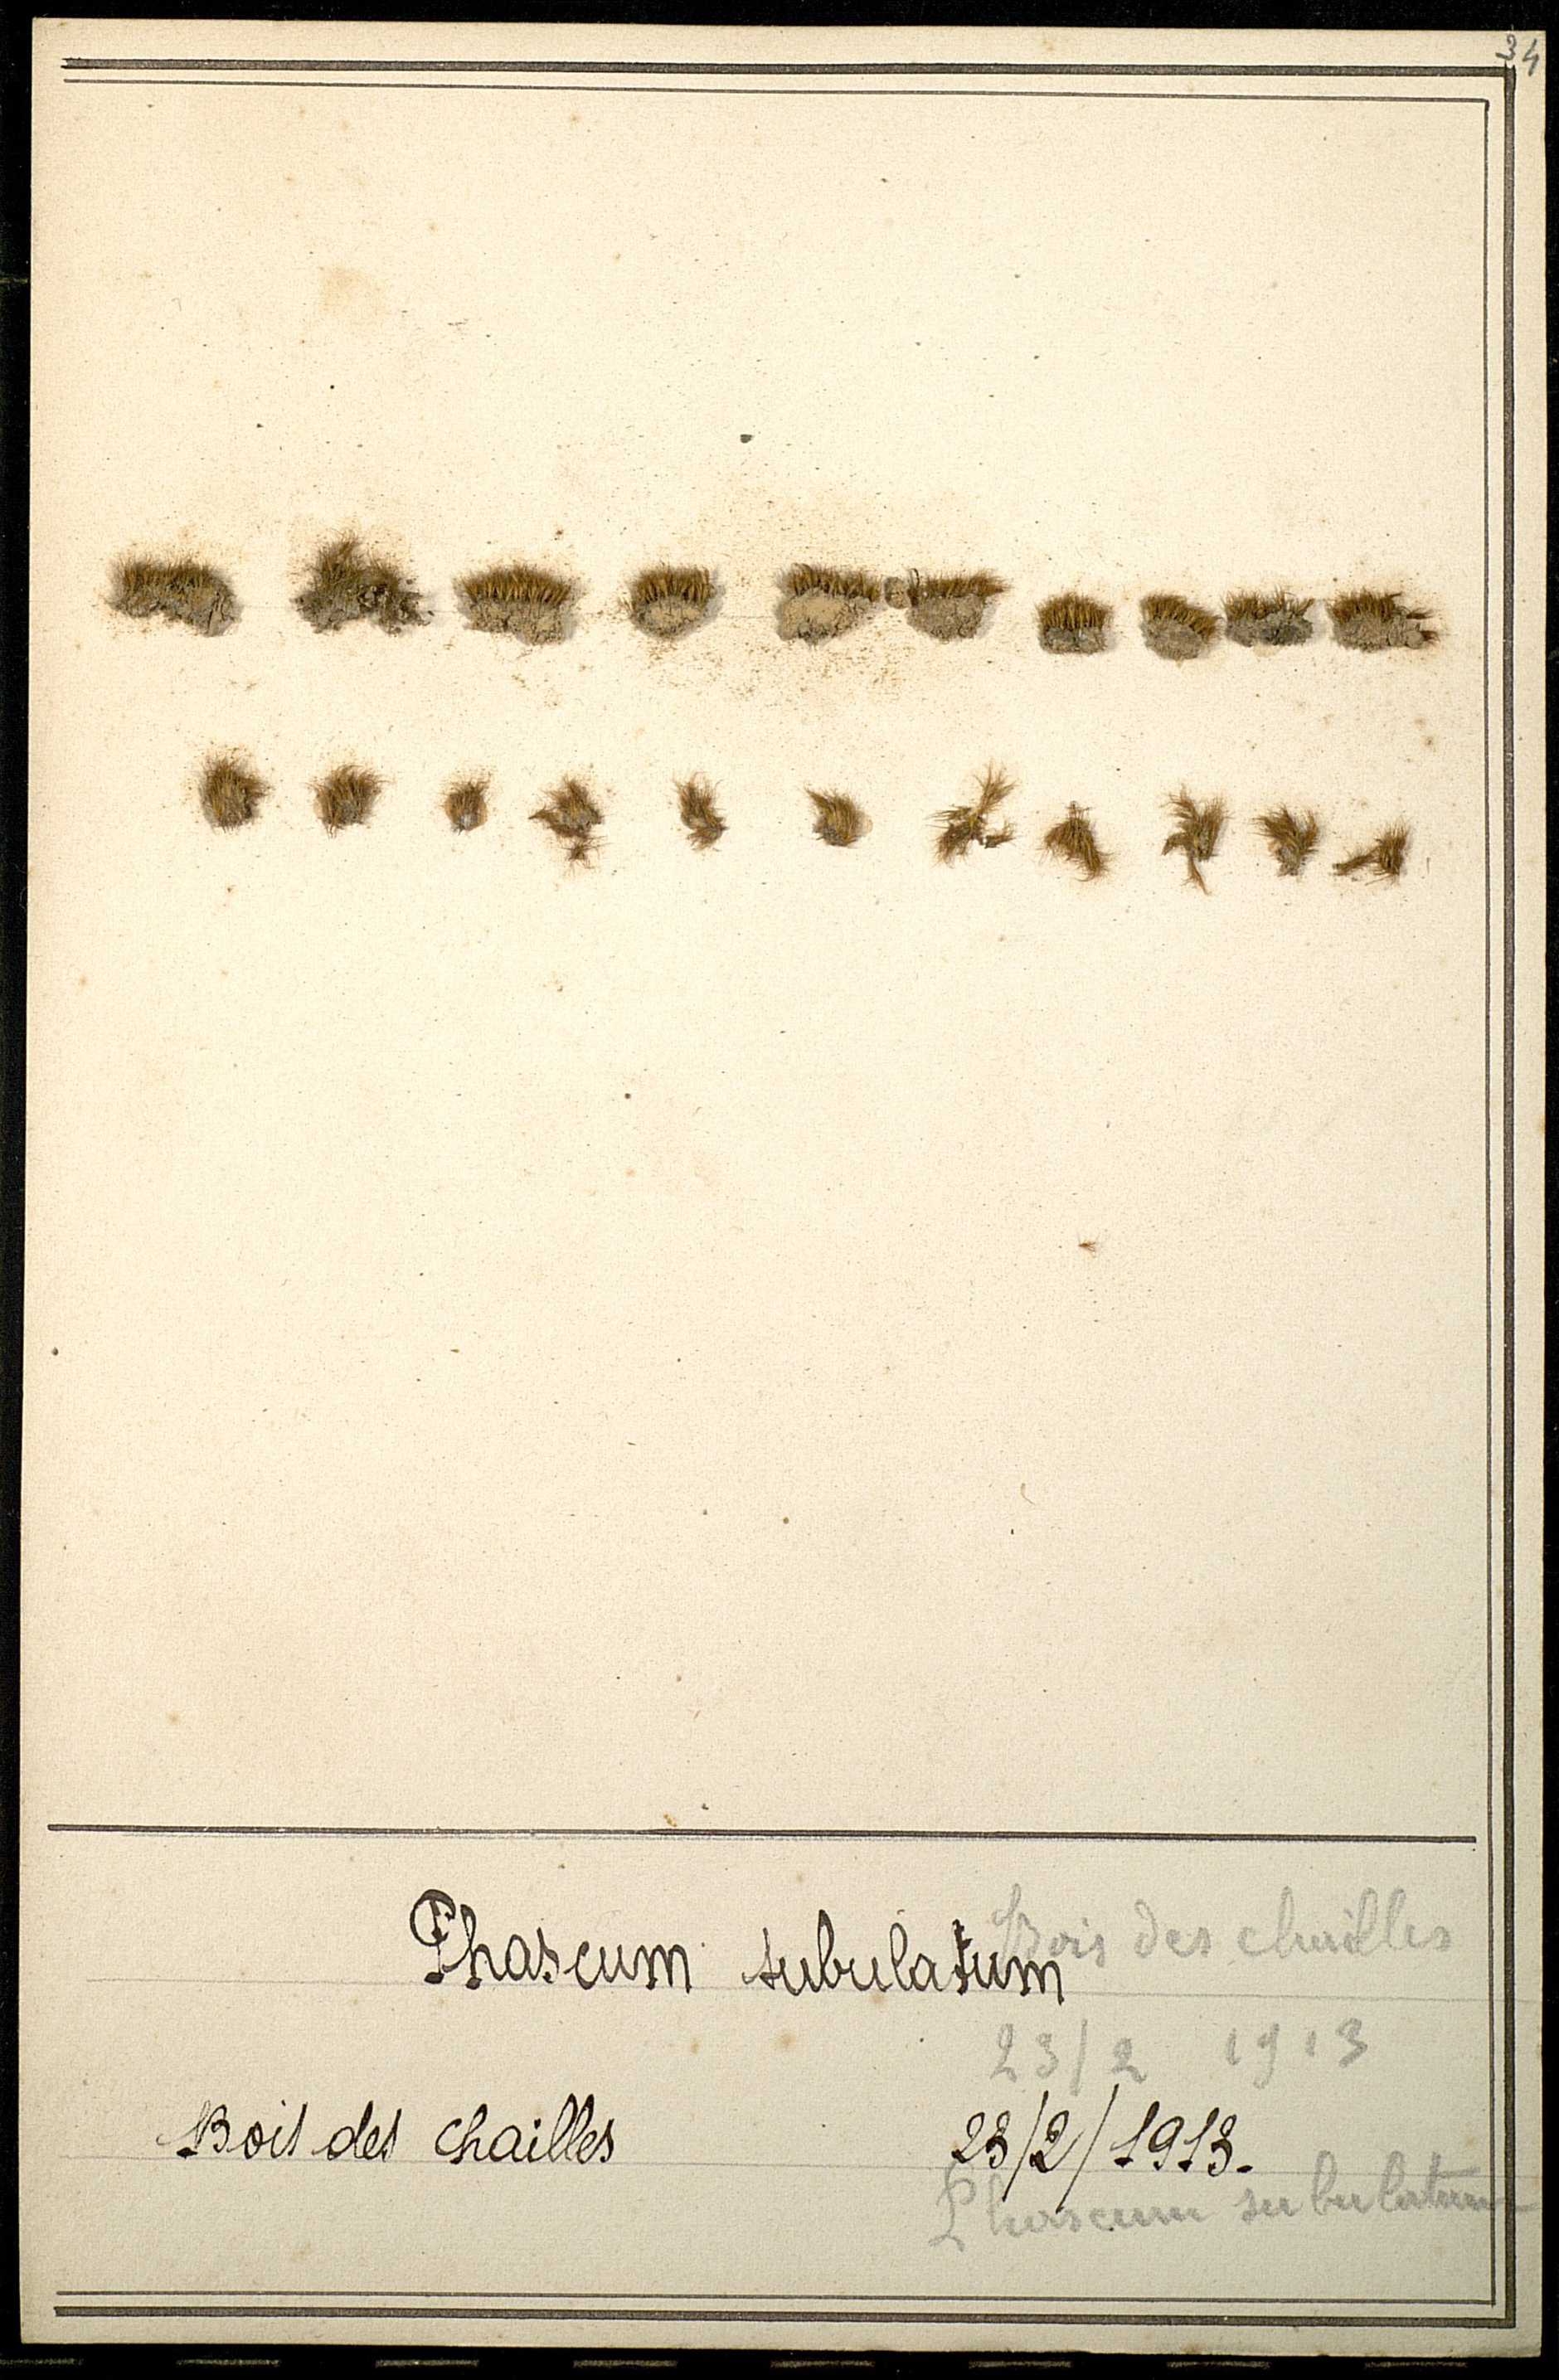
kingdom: Plantae
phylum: Bryophyta
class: Bryopsida
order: Dicranales
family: Ditrichaceae
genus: Pleuridium
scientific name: Pleuridium subulatum
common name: Awl-leaved earth-moss
